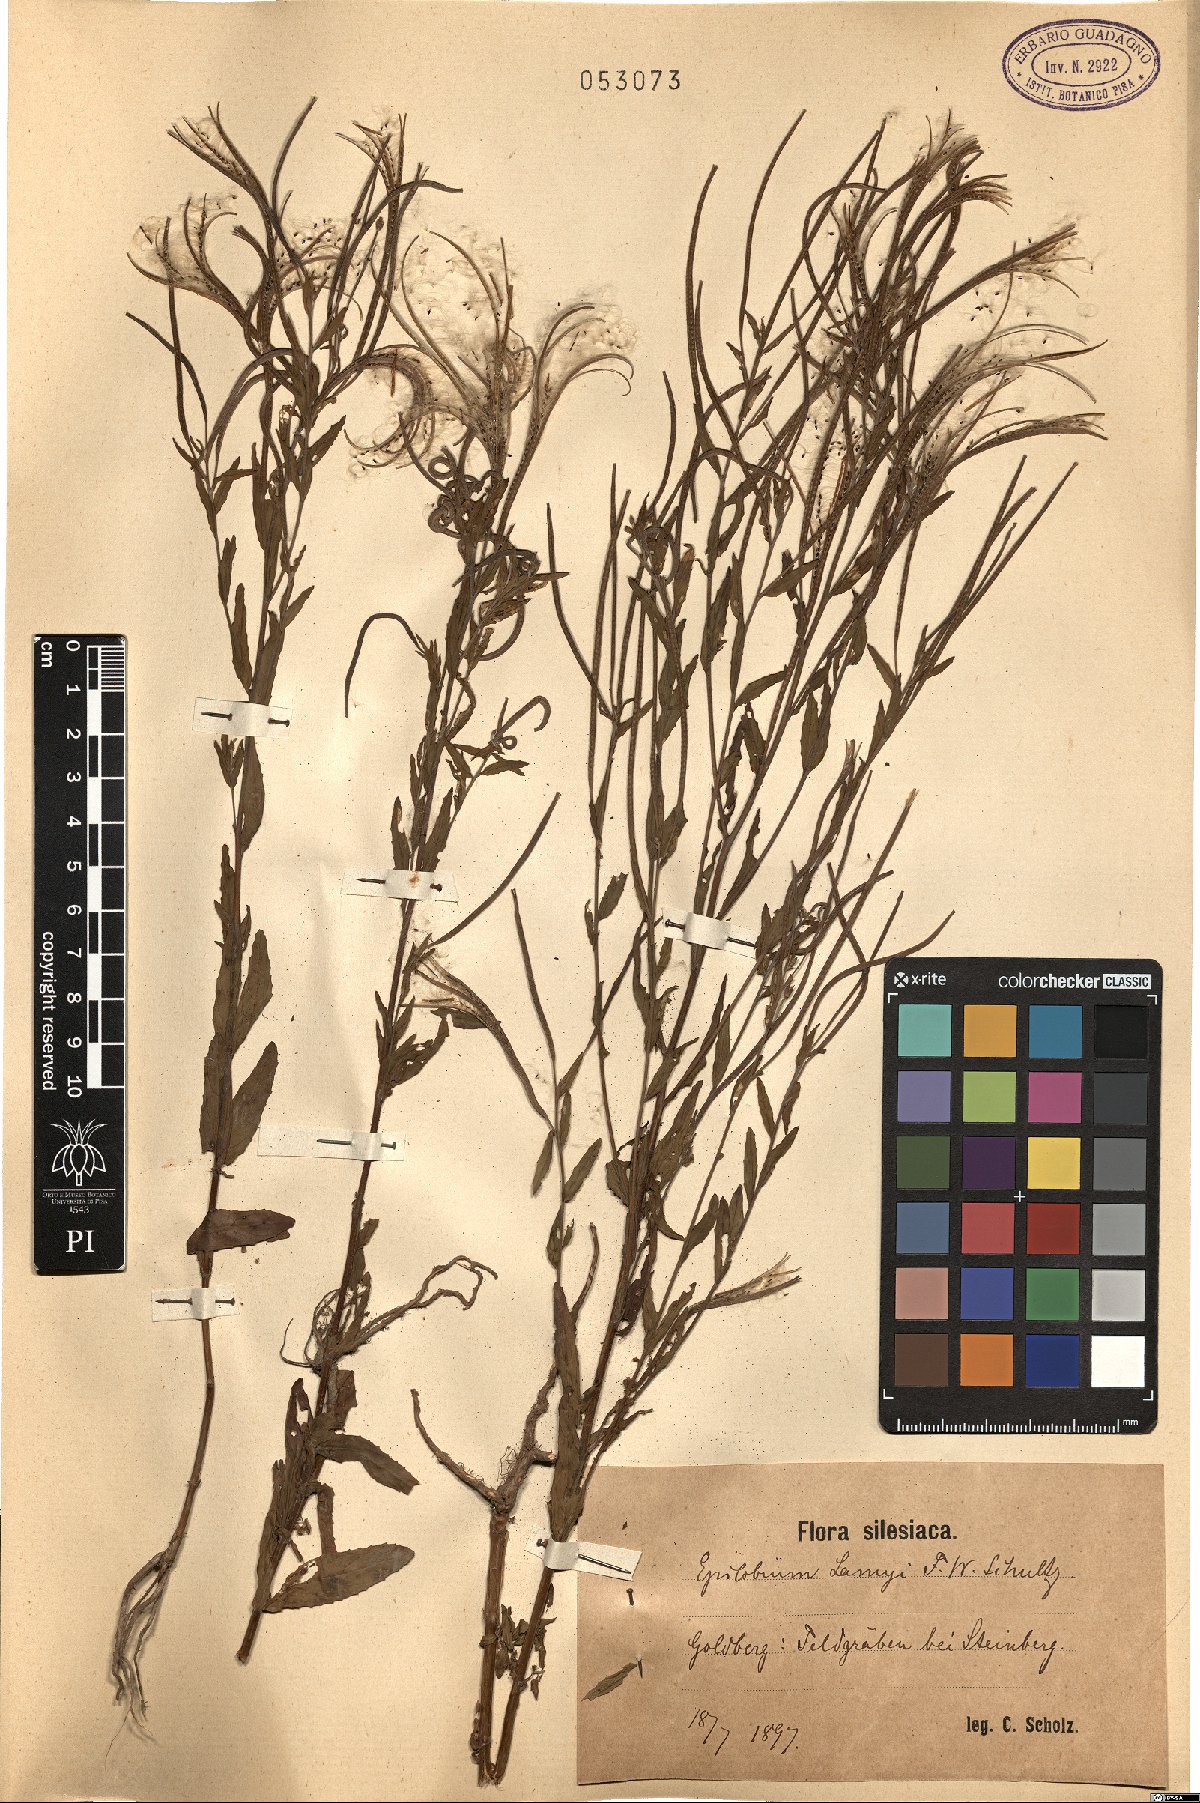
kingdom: Plantae
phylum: Tracheophyta
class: Magnoliopsida
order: Myrtales
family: Onagraceae
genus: Epilobium
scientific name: Epilobium lamyi
